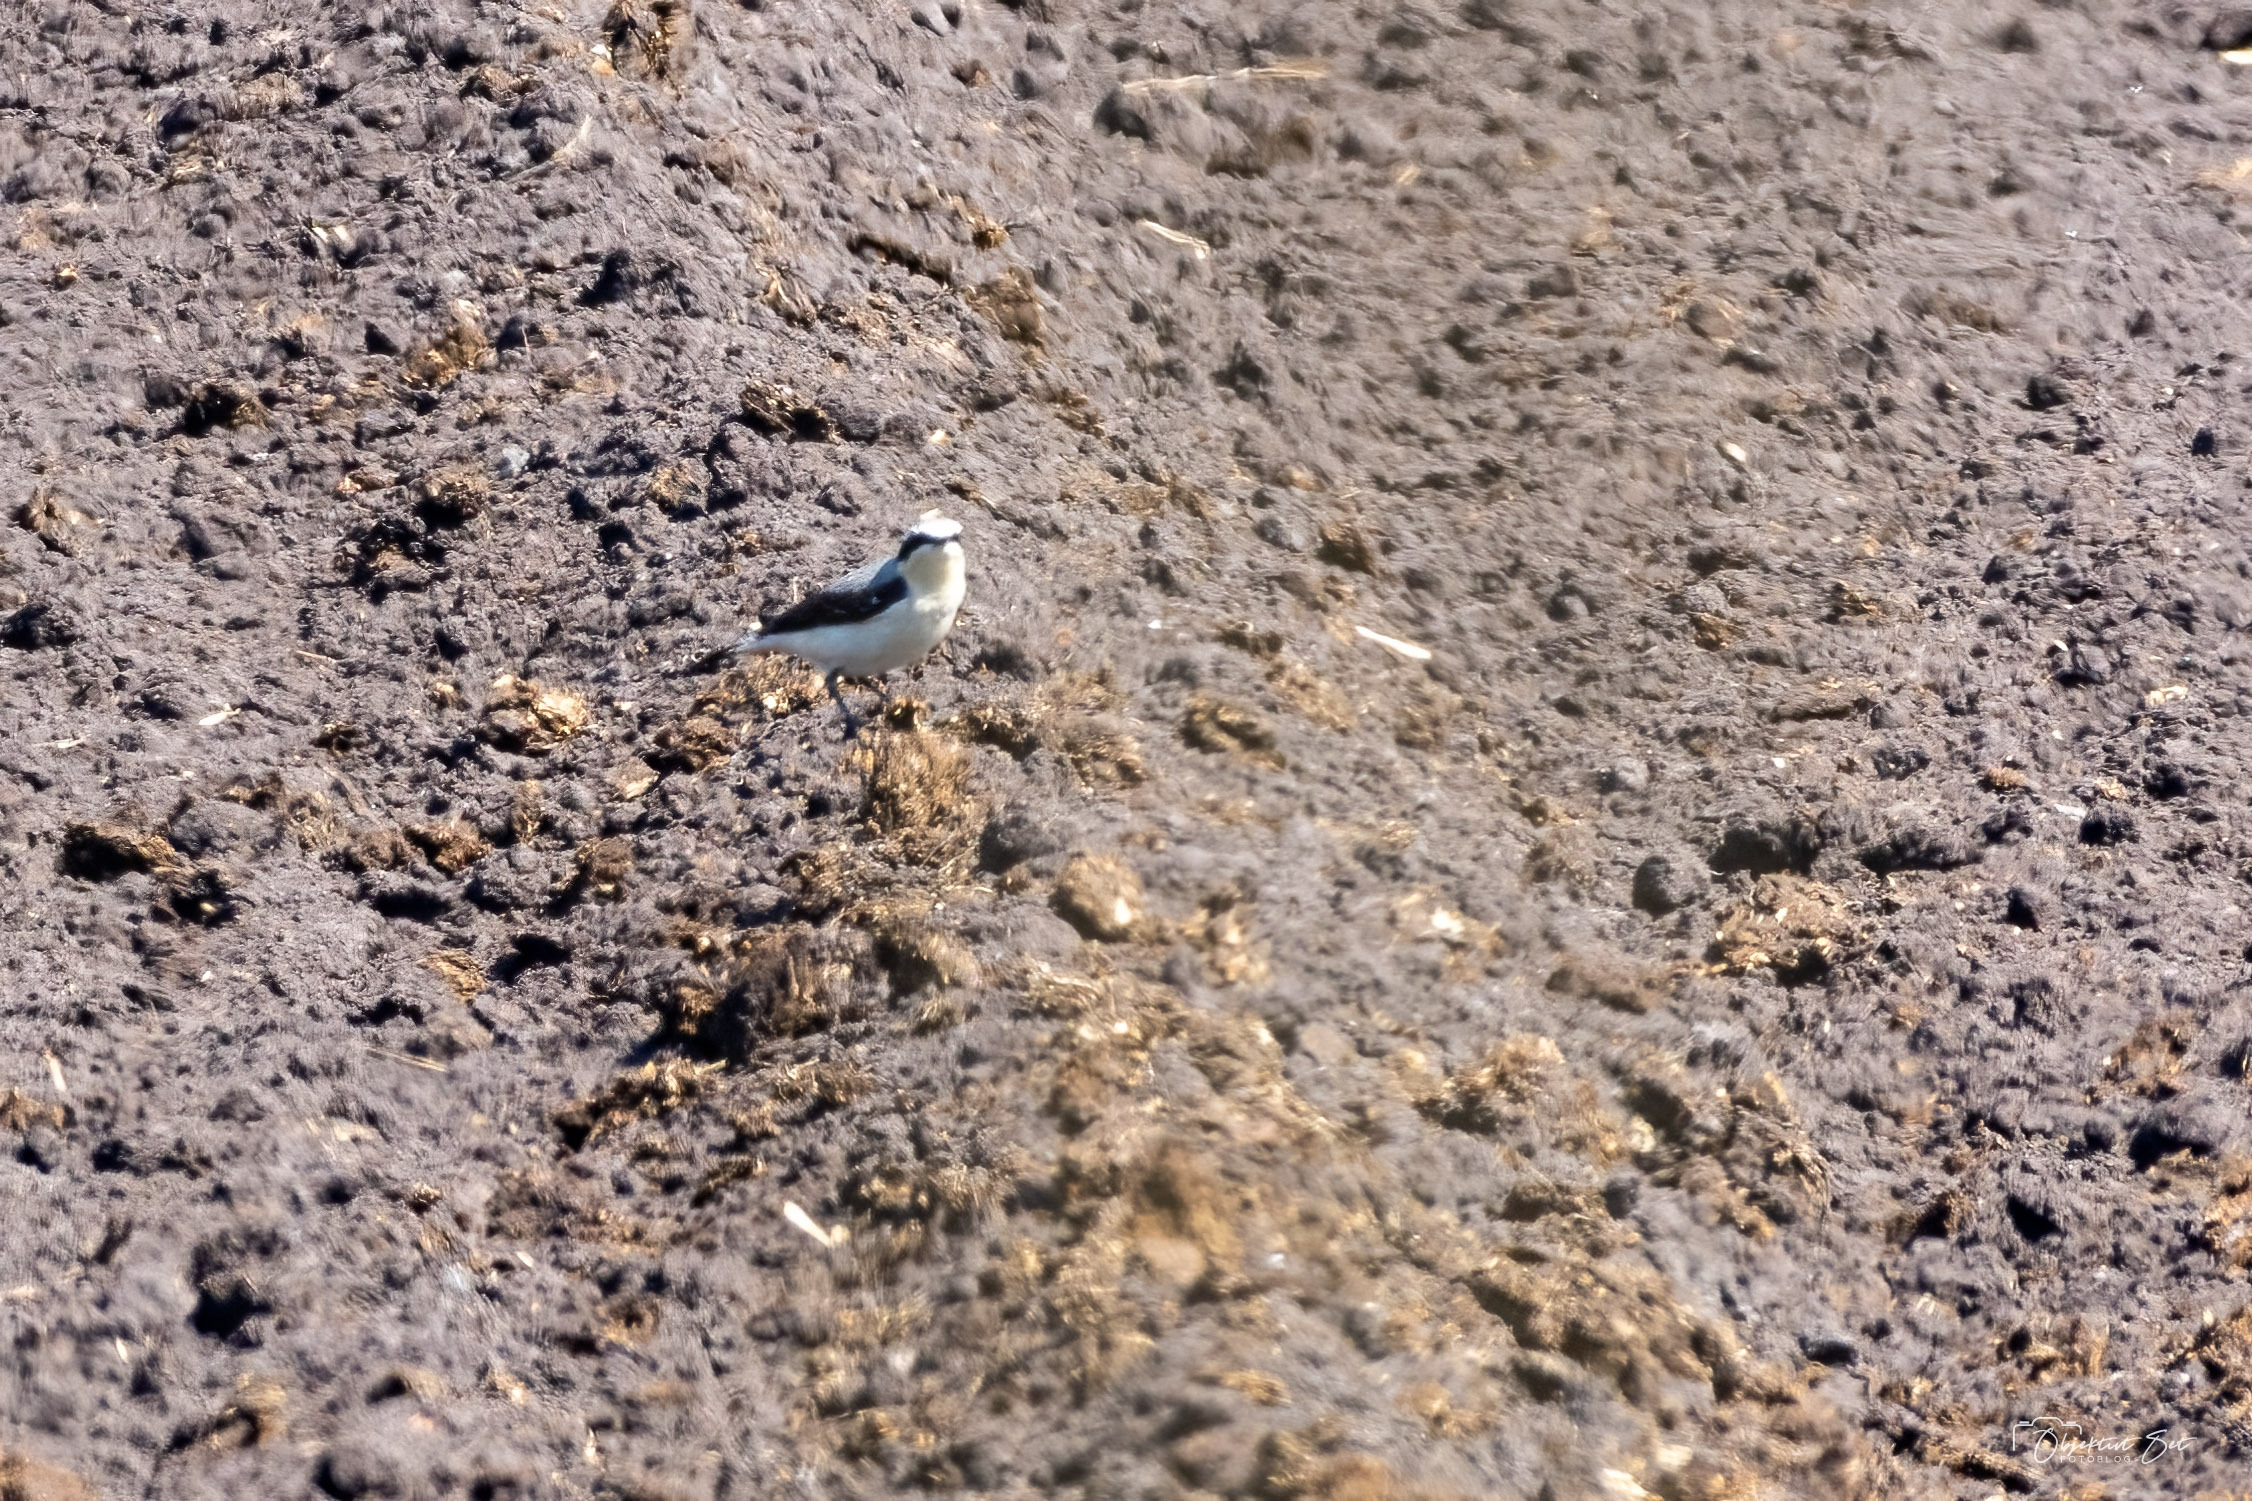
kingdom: Animalia
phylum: Chordata
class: Aves
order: Passeriformes
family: Muscicapidae
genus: Oenanthe
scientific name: Oenanthe oenanthe
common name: Stenpikker
